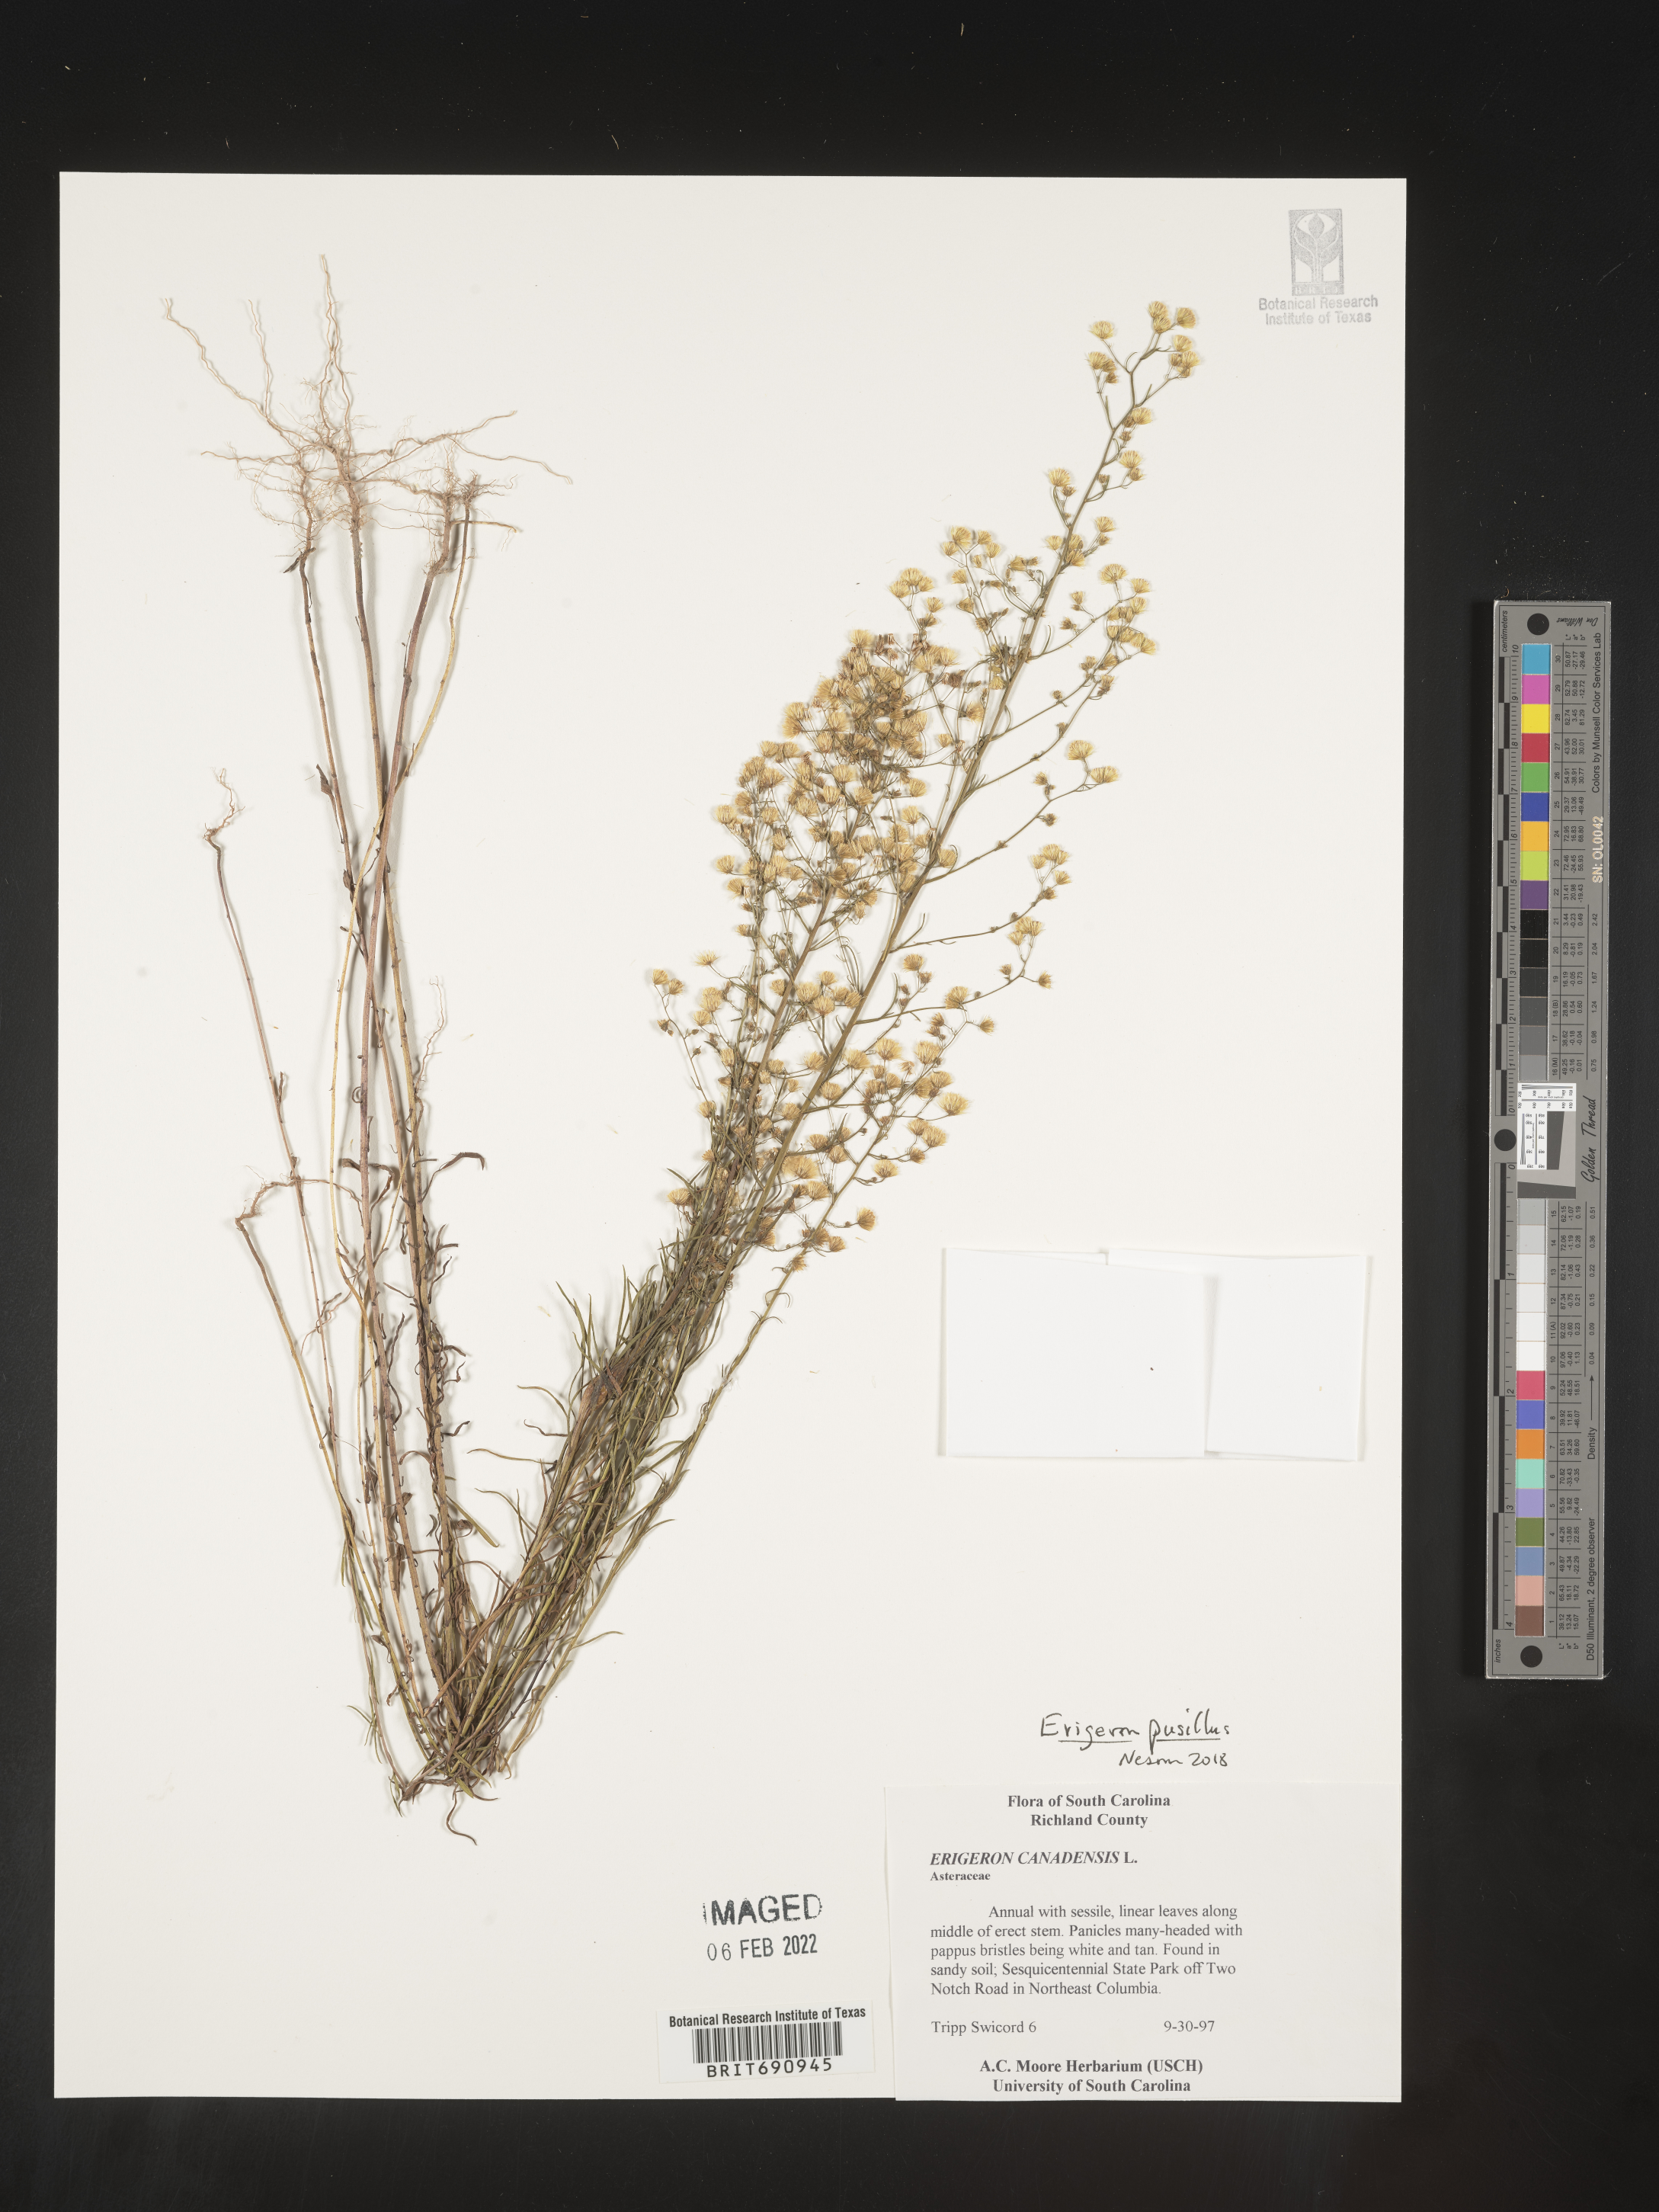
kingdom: Plantae
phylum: Tracheophyta
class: Magnoliopsida
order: Asterales
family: Asteraceae
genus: Erigeron
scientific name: Erigeron canadensis
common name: Canadian fleabane
